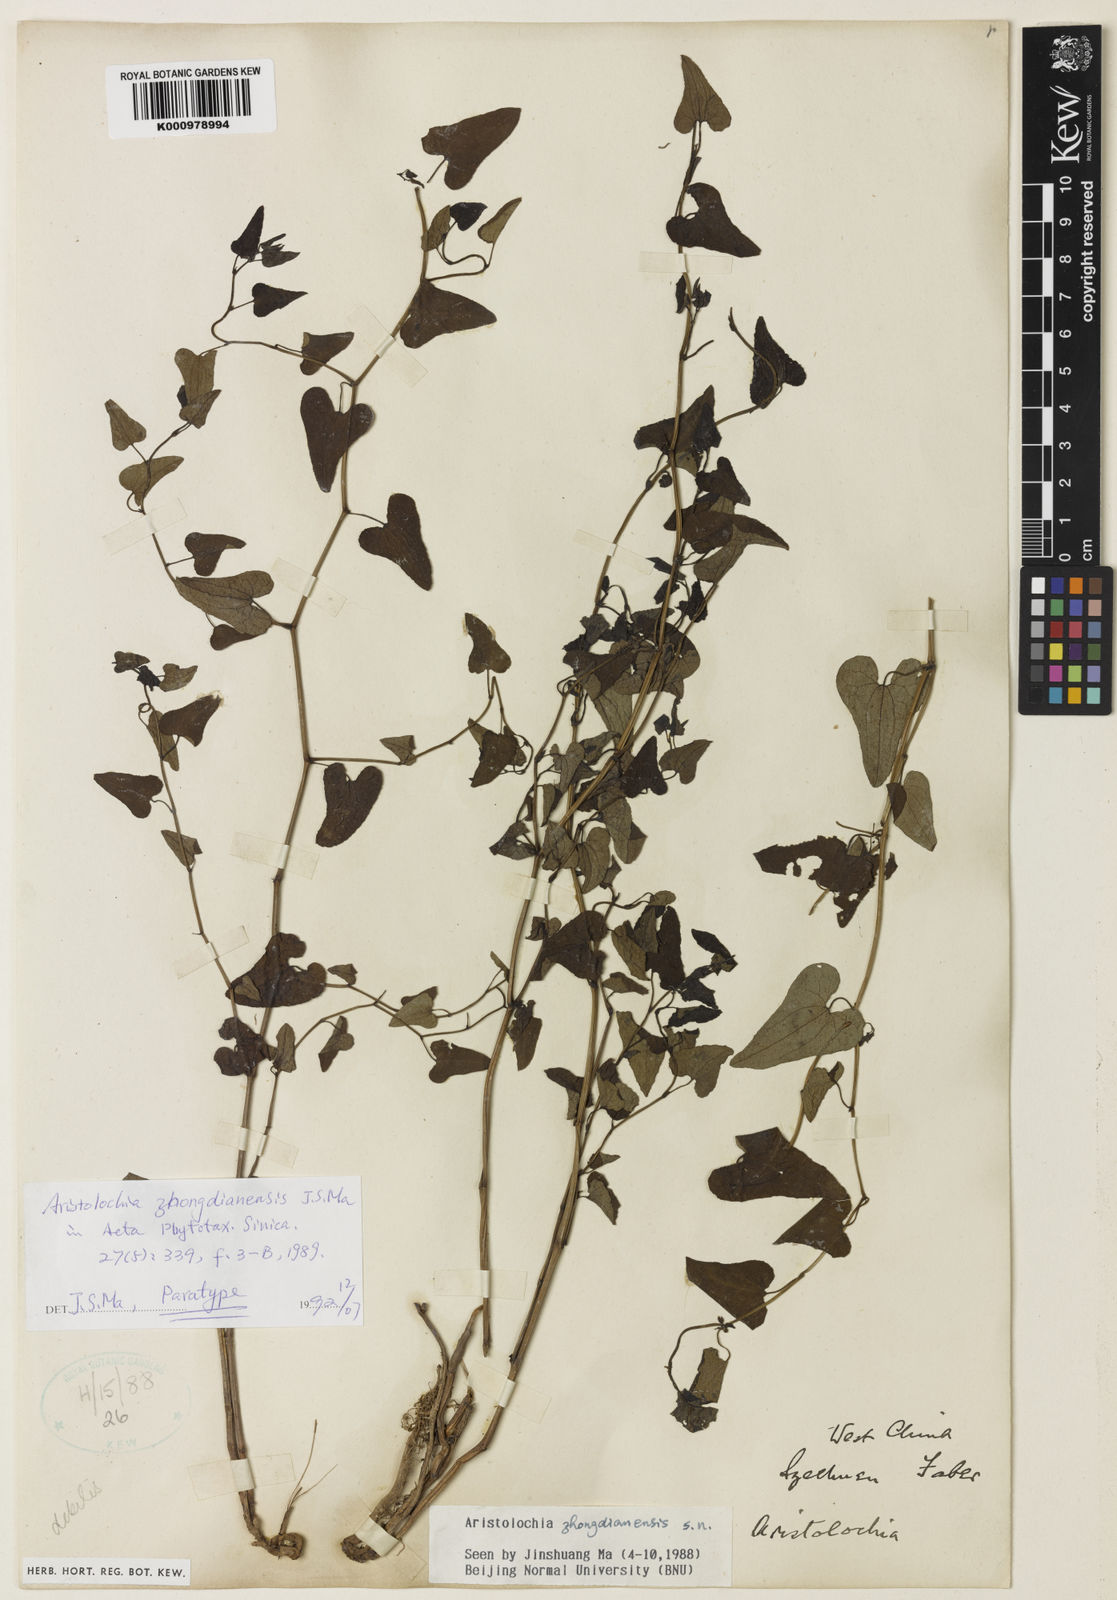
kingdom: Plantae
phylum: Tracheophyta
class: Magnoliopsida
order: Piperales
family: Aristolochiaceae
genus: Aristolochia
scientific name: Aristolochia zhongdianensis
